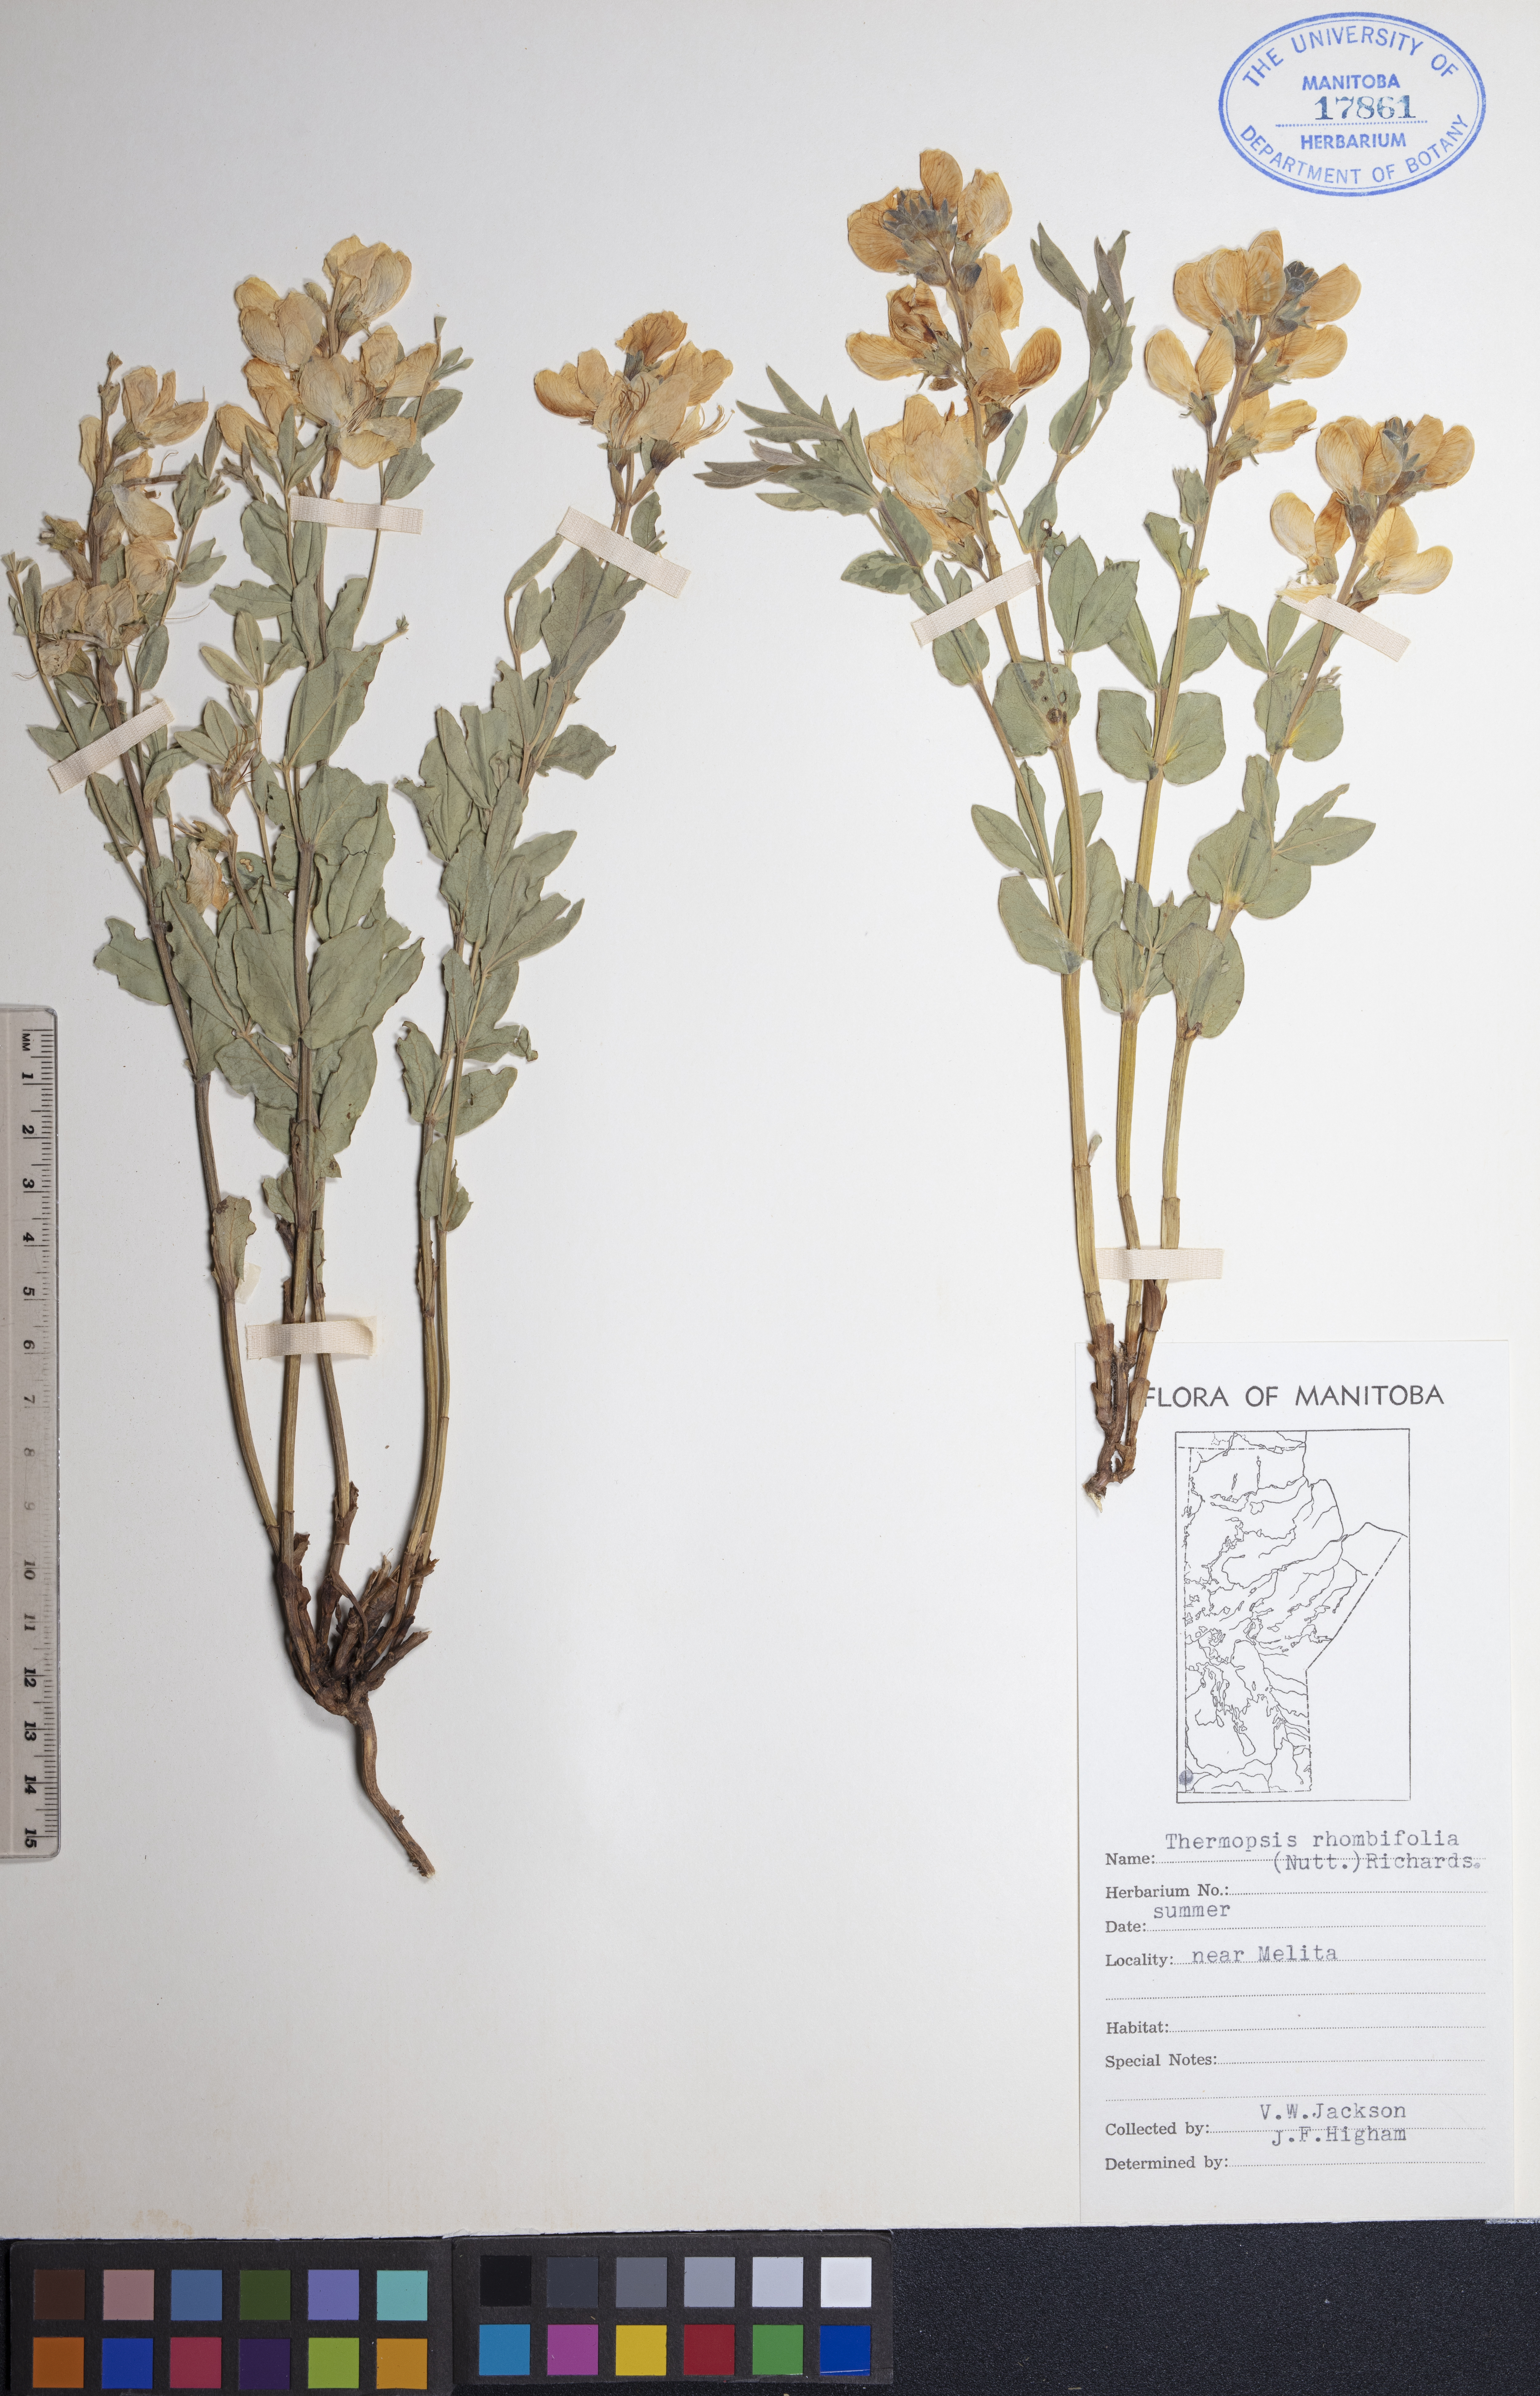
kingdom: Plantae
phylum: Tracheophyta
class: Magnoliopsida
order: Fabales
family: Fabaceae
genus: Thermopsis
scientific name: Thermopsis rhombifolia
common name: Circle-pod-pea
